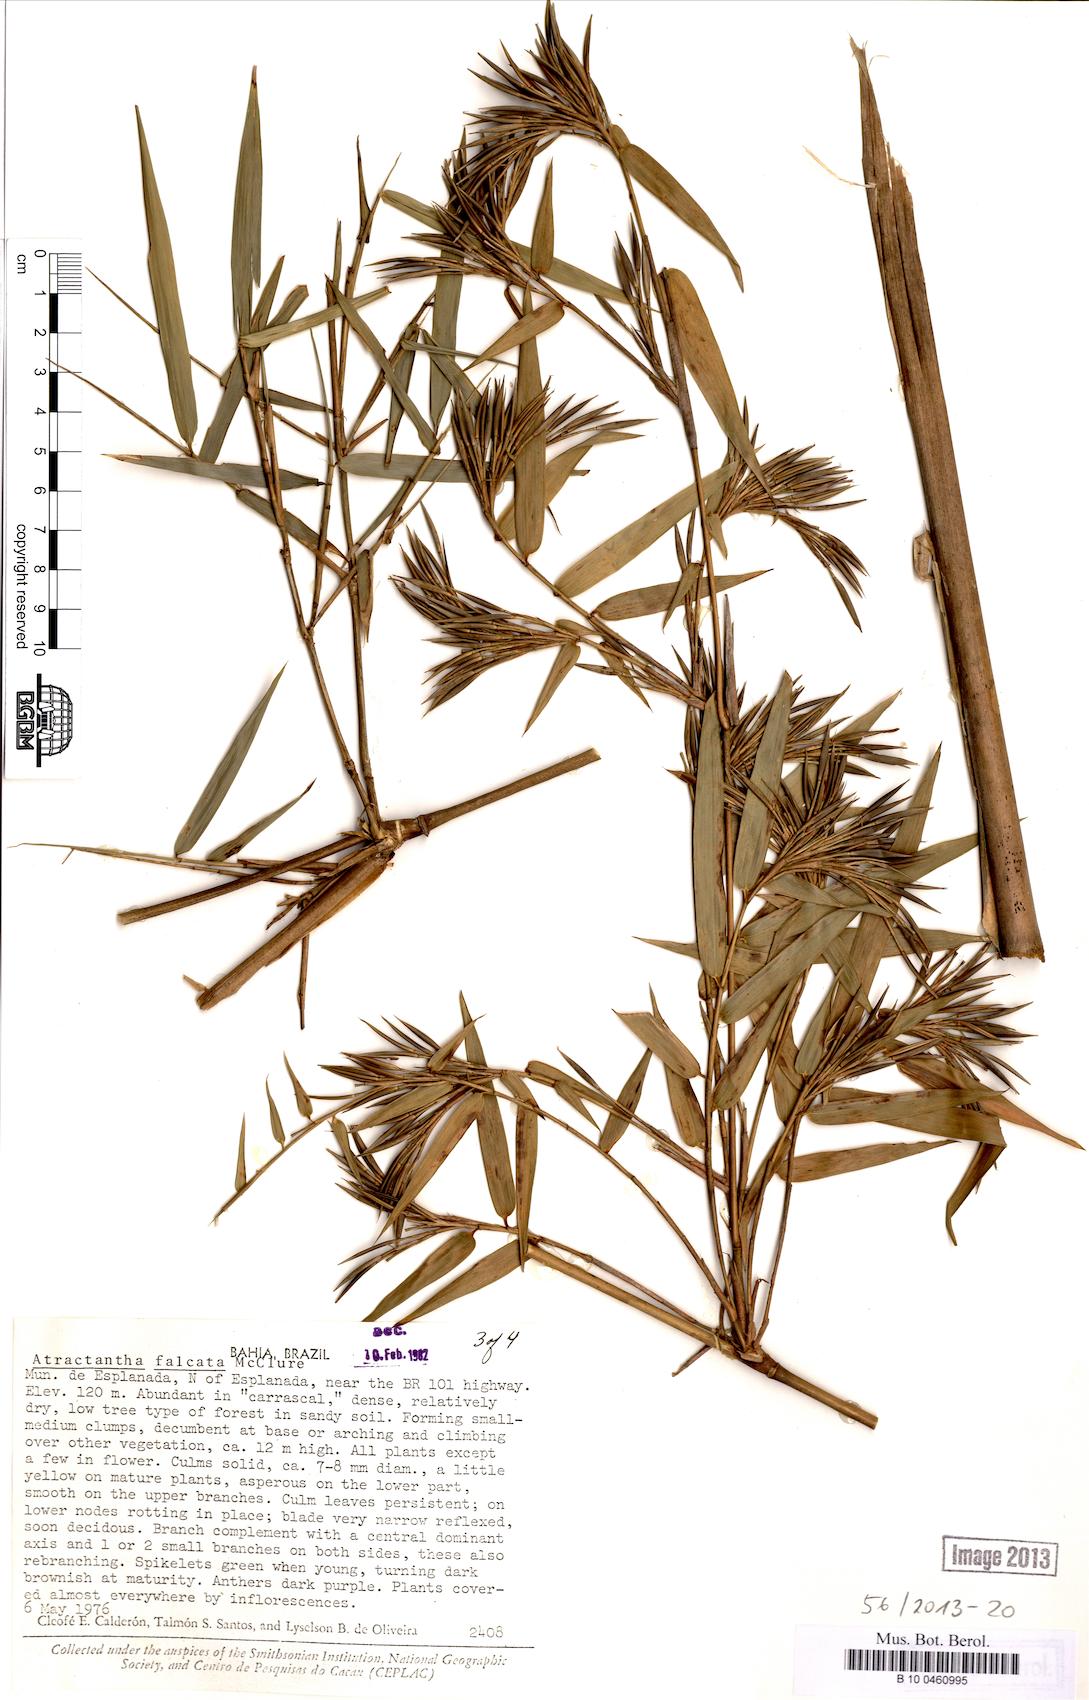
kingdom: Plantae
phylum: Tracheophyta
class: Liliopsida
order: Poales
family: Poaceae
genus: Atractantha
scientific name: Atractantha falcata
